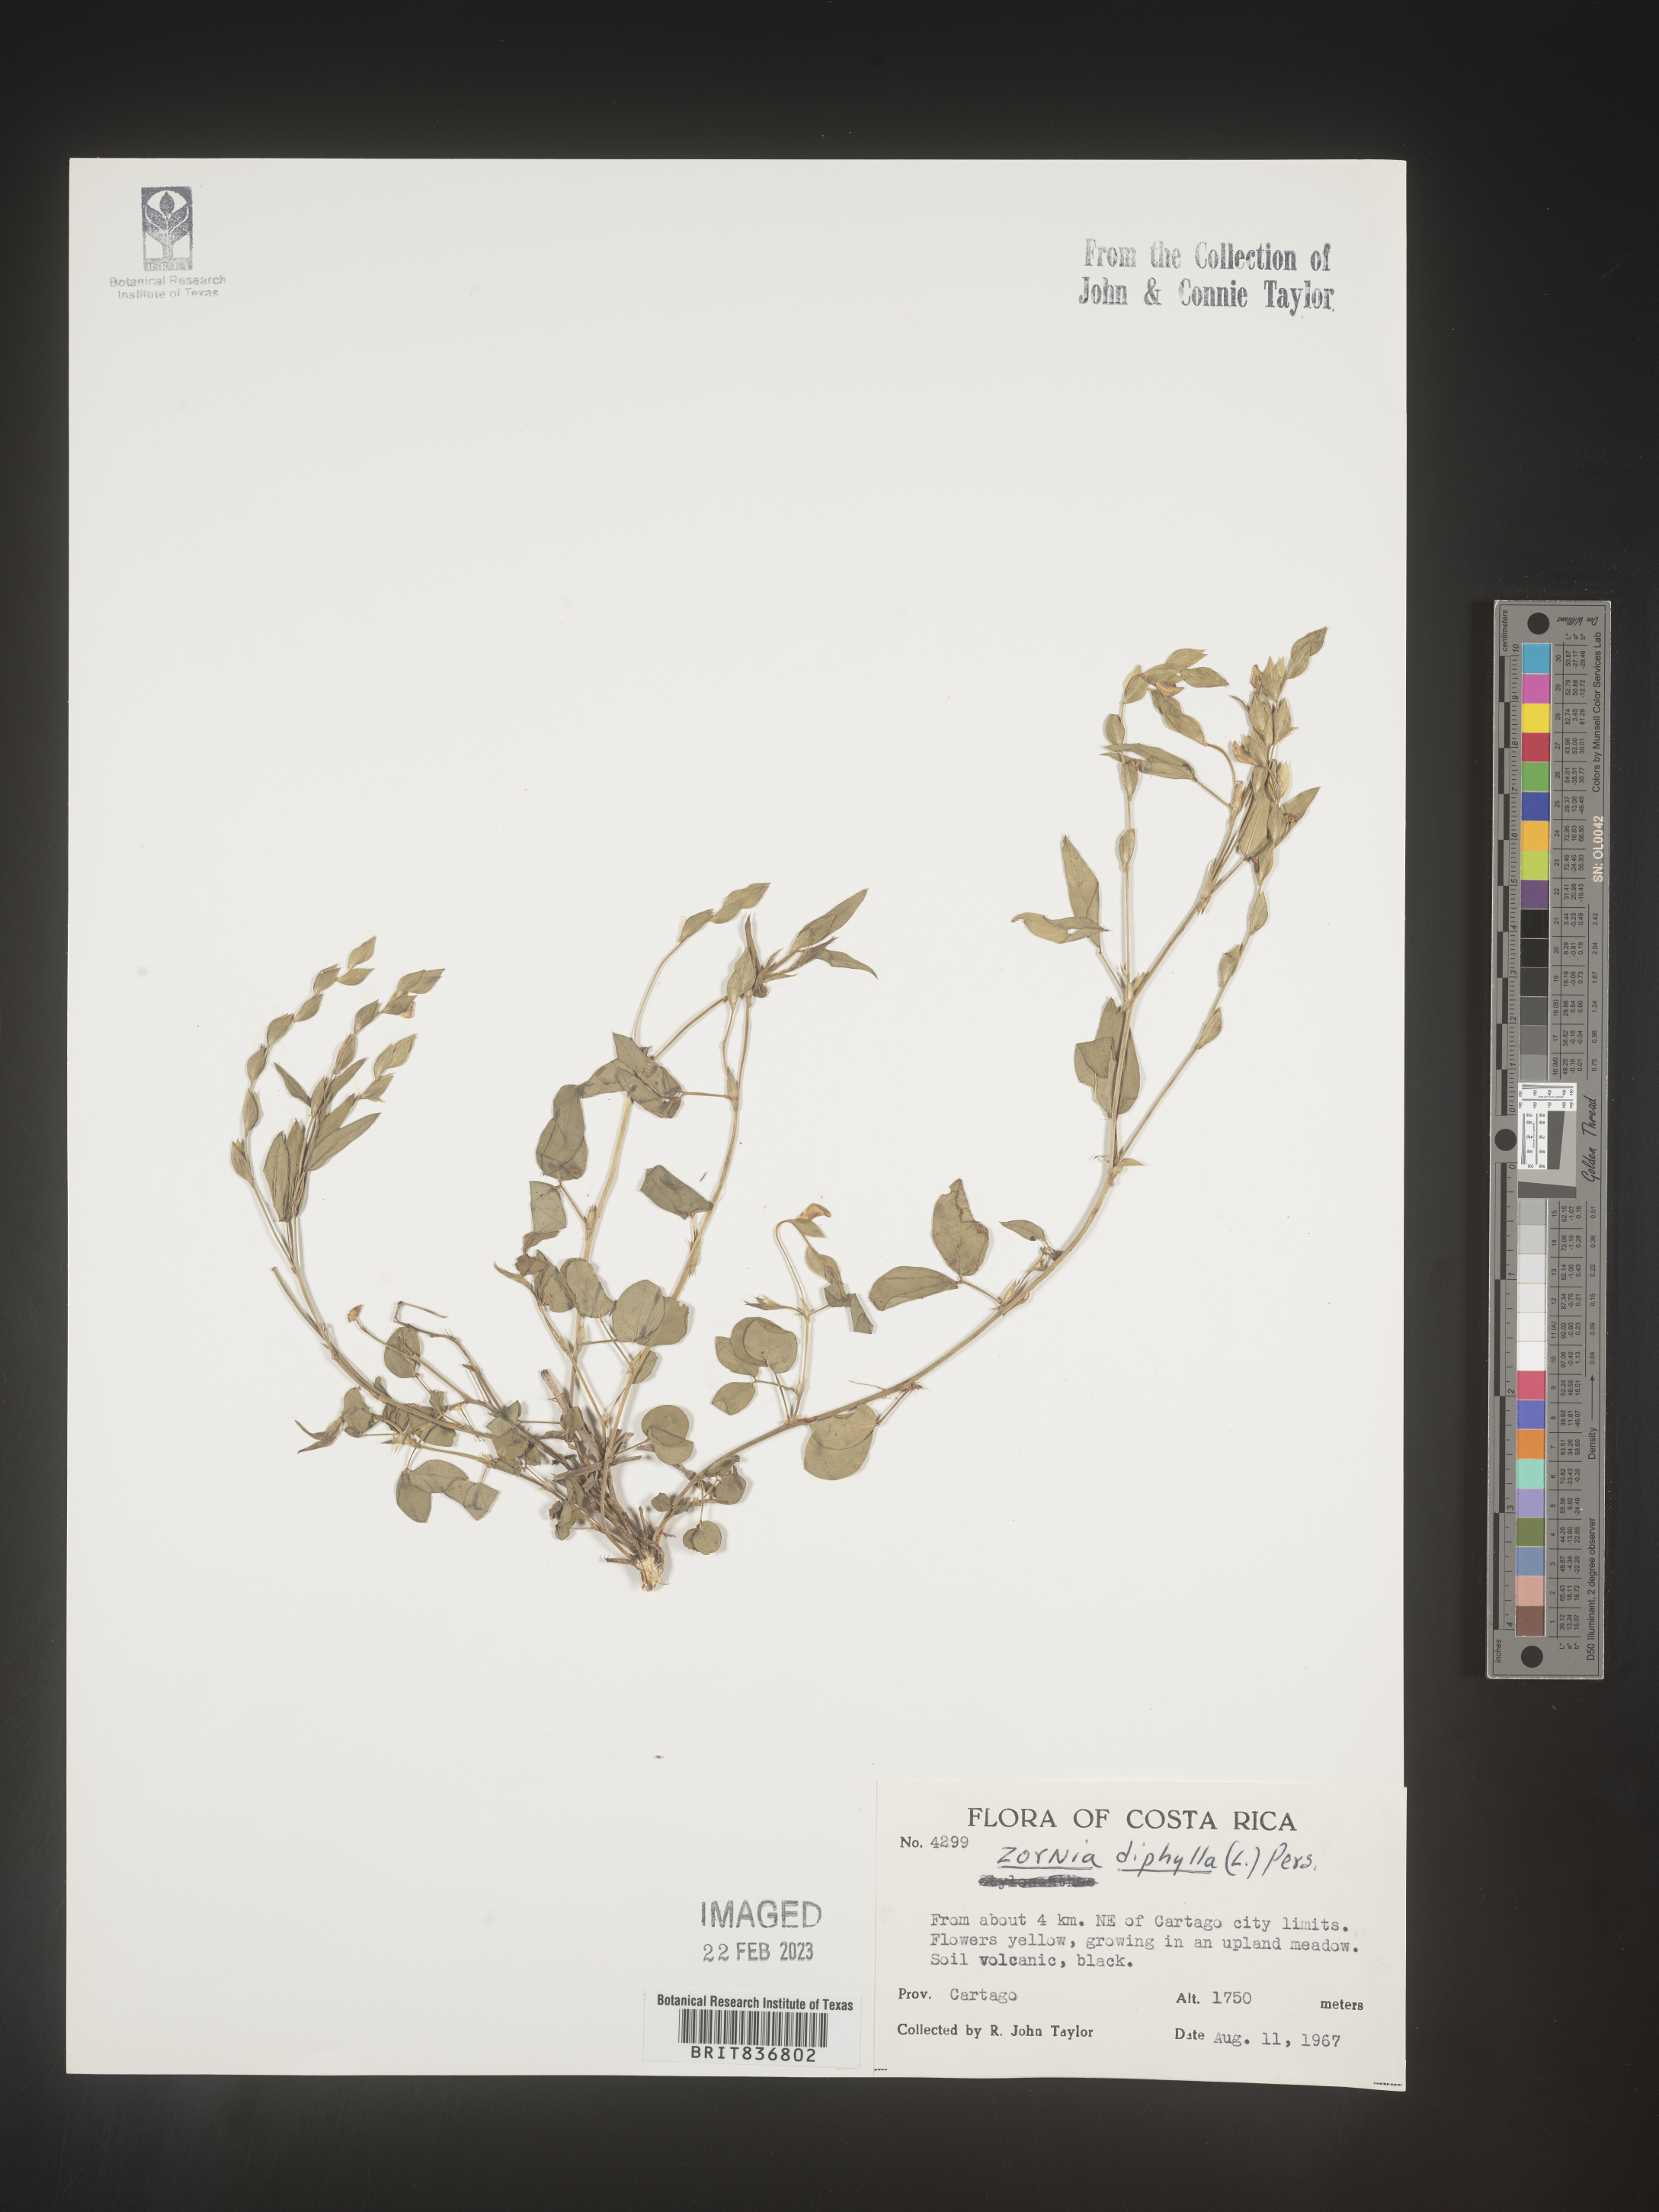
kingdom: Plantae
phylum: Tracheophyta
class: Magnoliopsida
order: Fabales
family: Fabaceae
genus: Zornia
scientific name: Zornia
